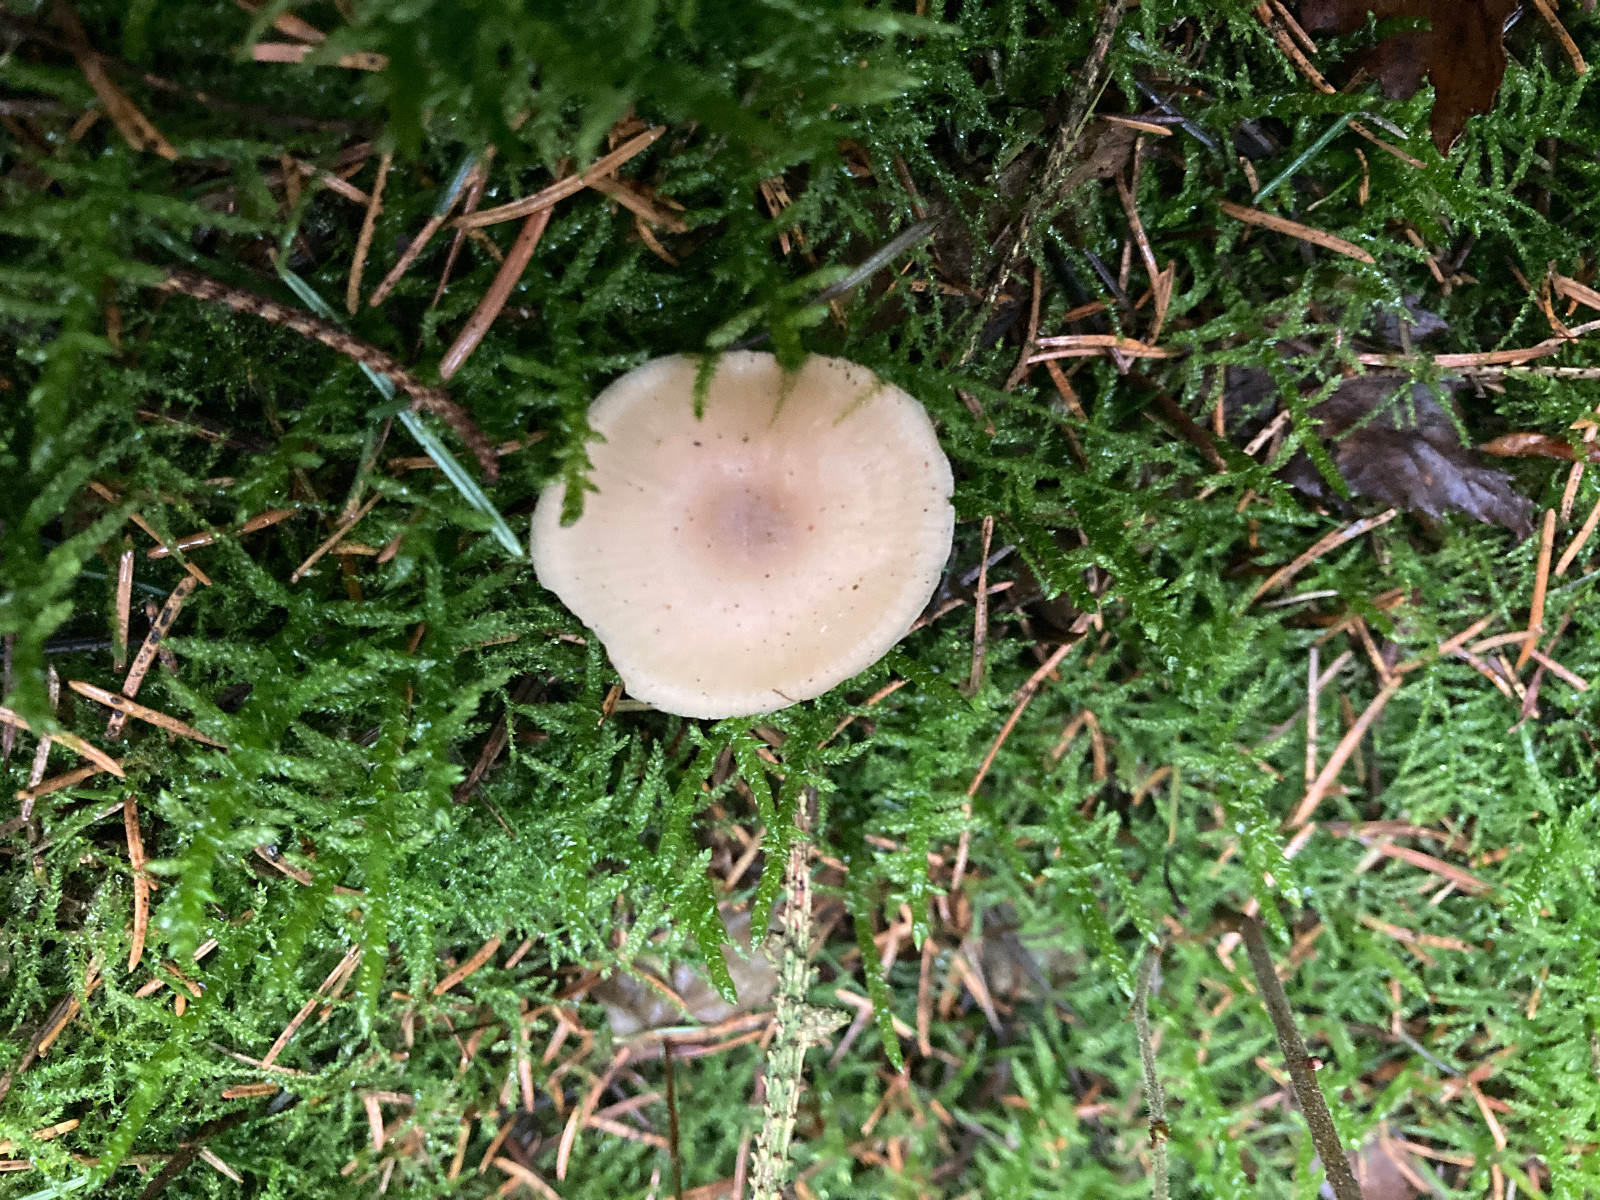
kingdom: Fungi
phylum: Basidiomycota
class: Agaricomycetes
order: Agaricales
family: Tricholomataceae
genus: Clitocybe
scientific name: Clitocybe fragrans
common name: vellugtende tragthat
